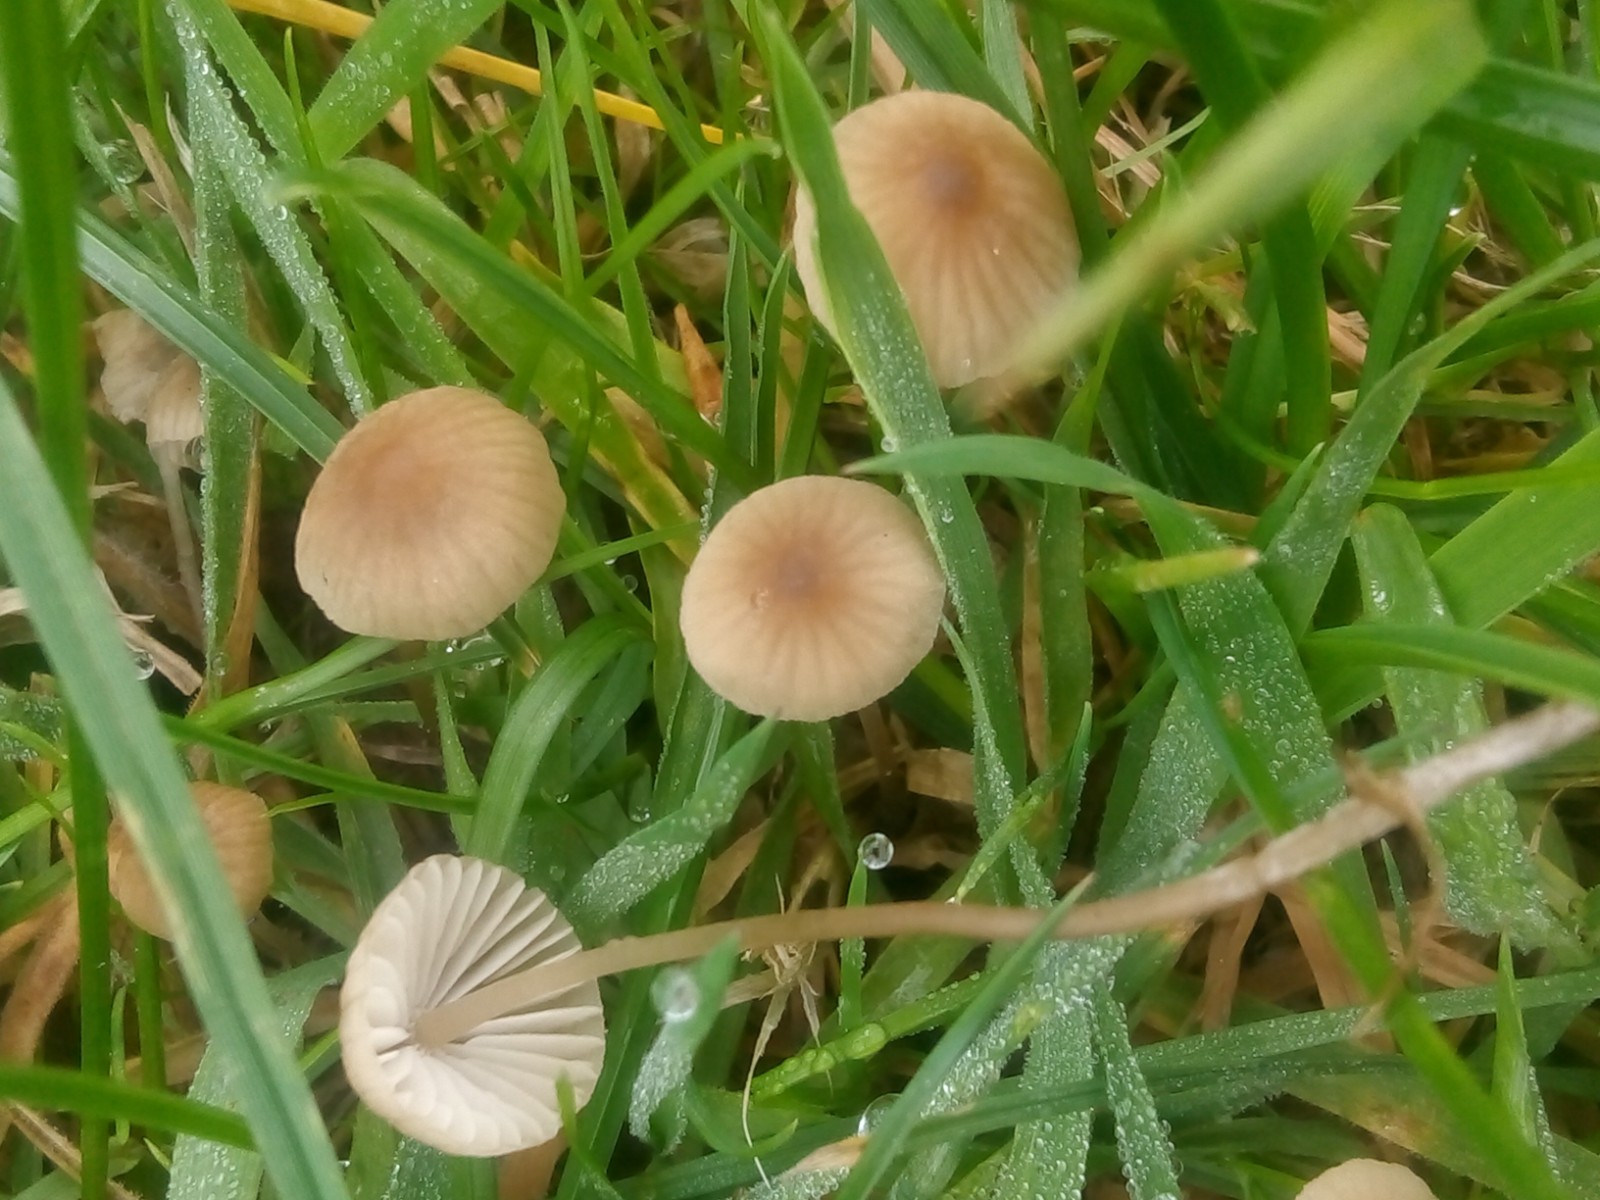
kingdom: Fungi
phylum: Basidiomycota
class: Agaricomycetes
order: Agaricales
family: Mycenaceae
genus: Mycena
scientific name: Mycena olivaceomarginata
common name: brunægget huesvamp
